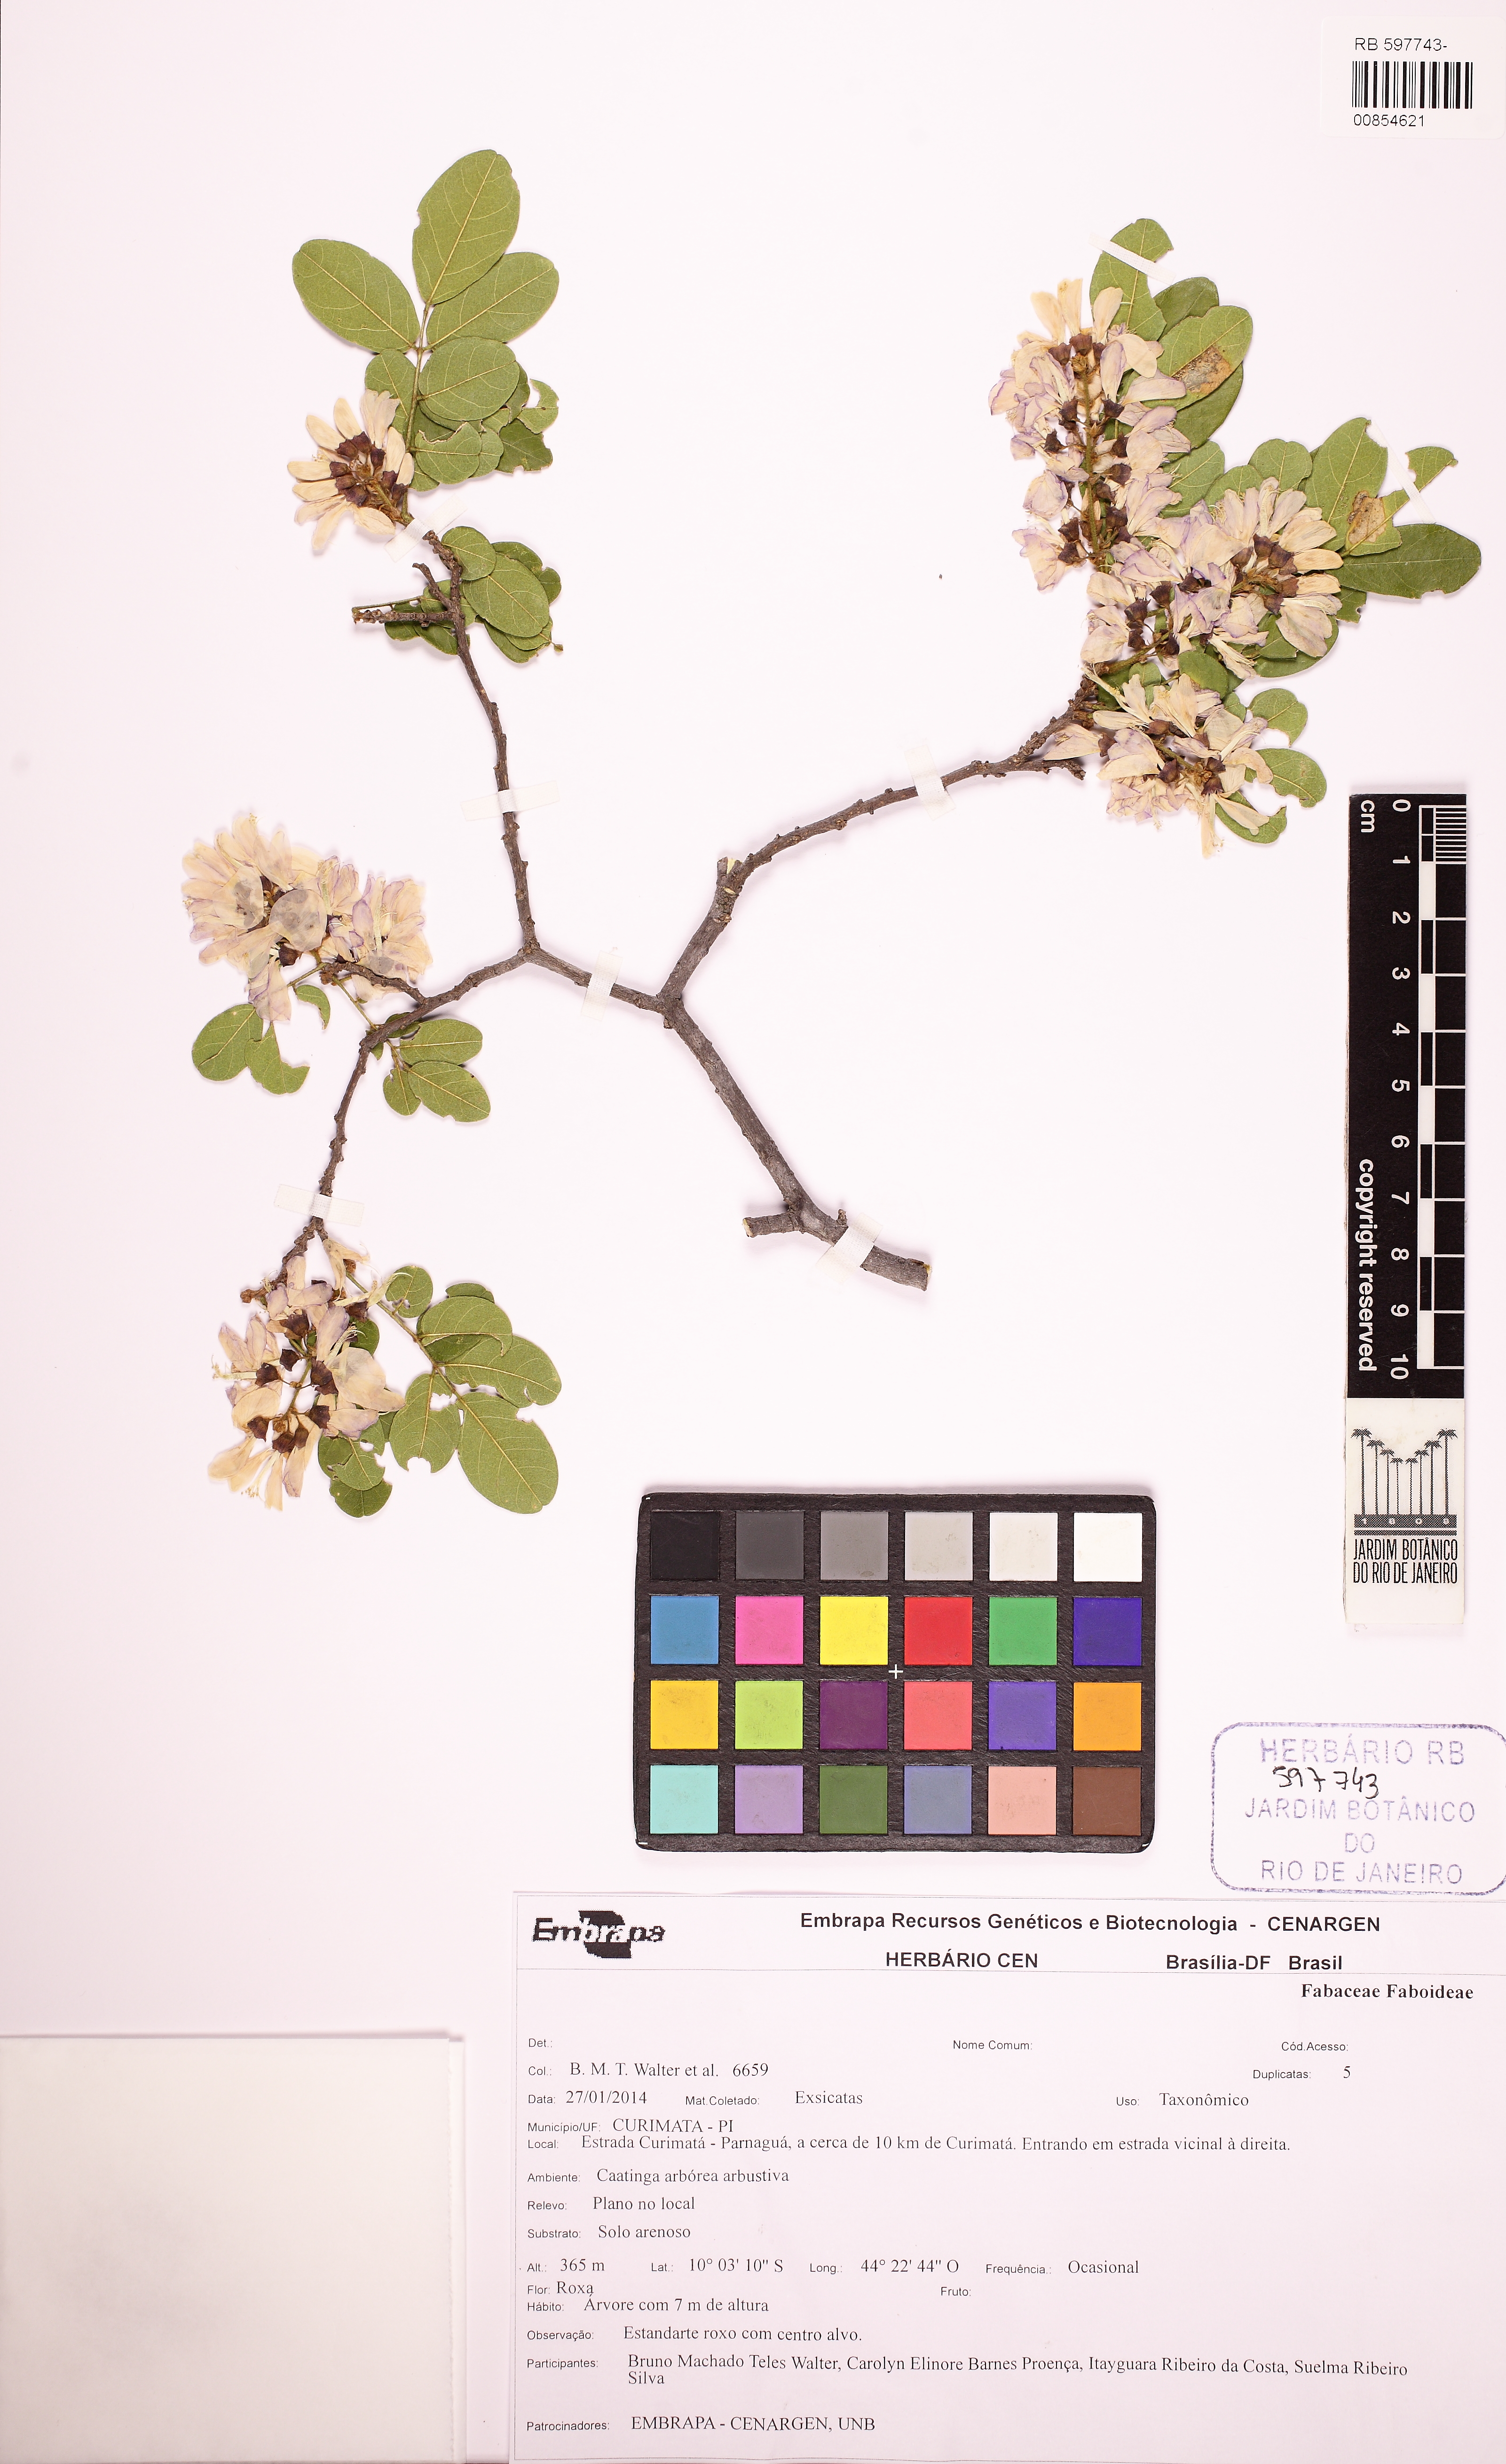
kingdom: Plantae
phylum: Tracheophyta
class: Magnoliopsida
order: Fabales
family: Fabaceae
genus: Lonchocarpus
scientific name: Lonchocarpus
